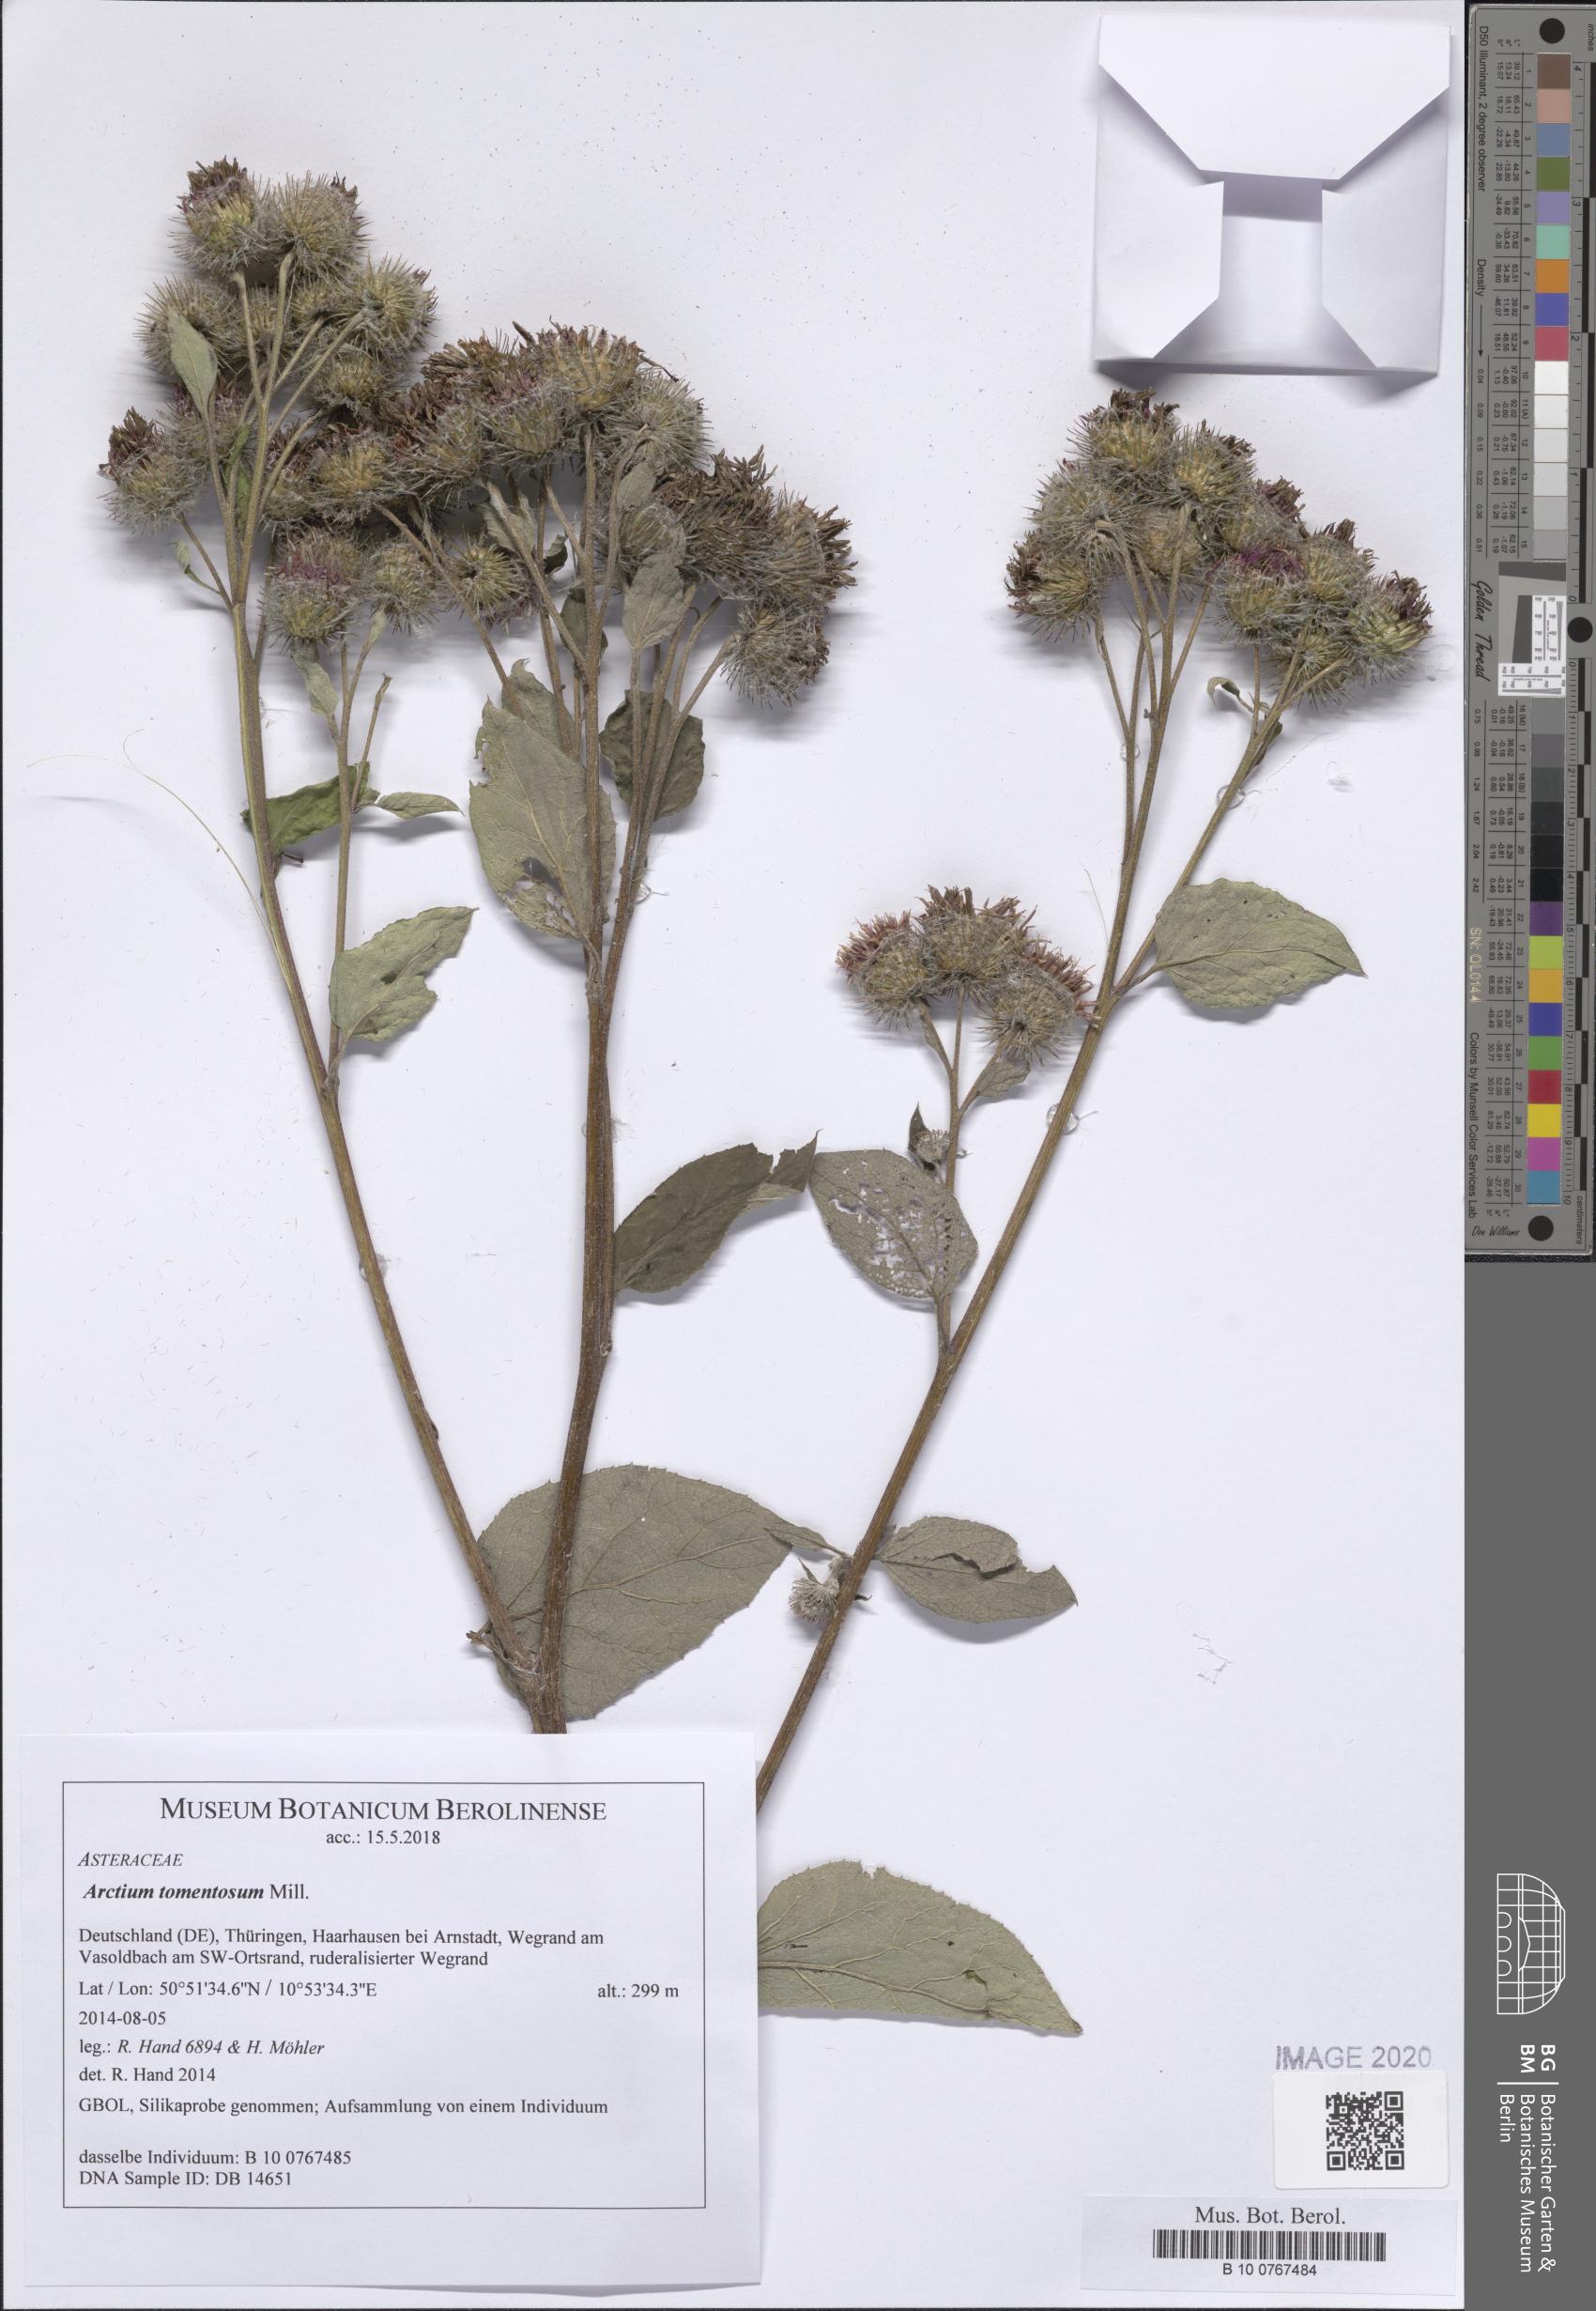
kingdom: Plantae
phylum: Tracheophyta
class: Magnoliopsida
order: Asterales
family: Asteraceae
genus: Arctium
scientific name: Arctium tomentosum
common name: Woolly burdock
